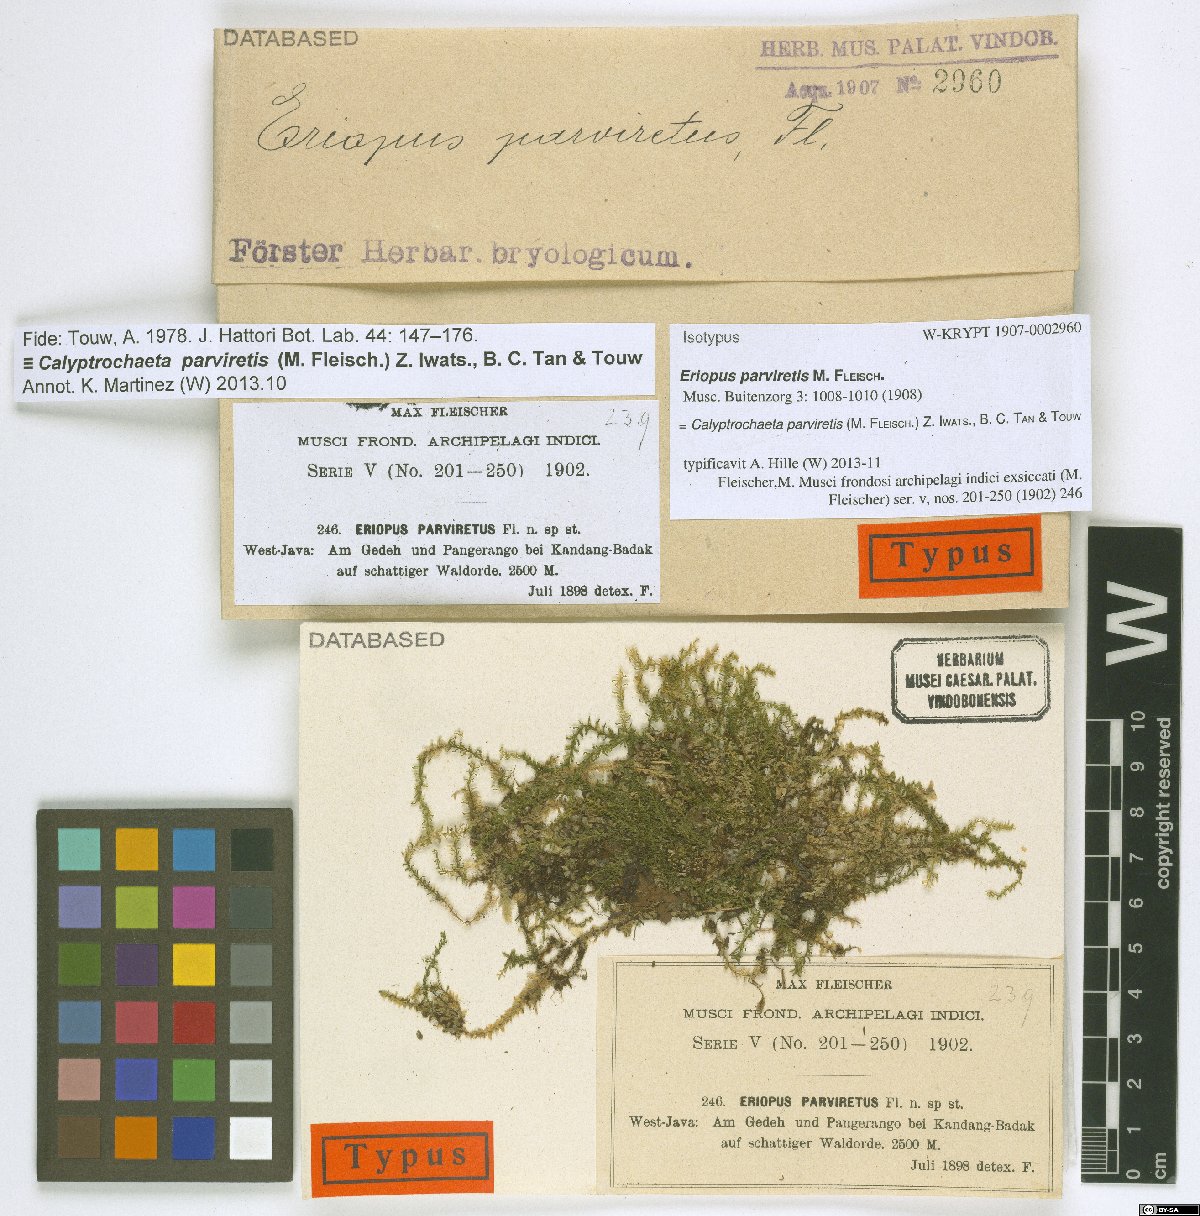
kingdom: Plantae
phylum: Bryophyta
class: Bryopsida
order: Hookeriales
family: Daltoniaceae
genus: Calyptrochaeta
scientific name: Calyptrochaeta parviretis
